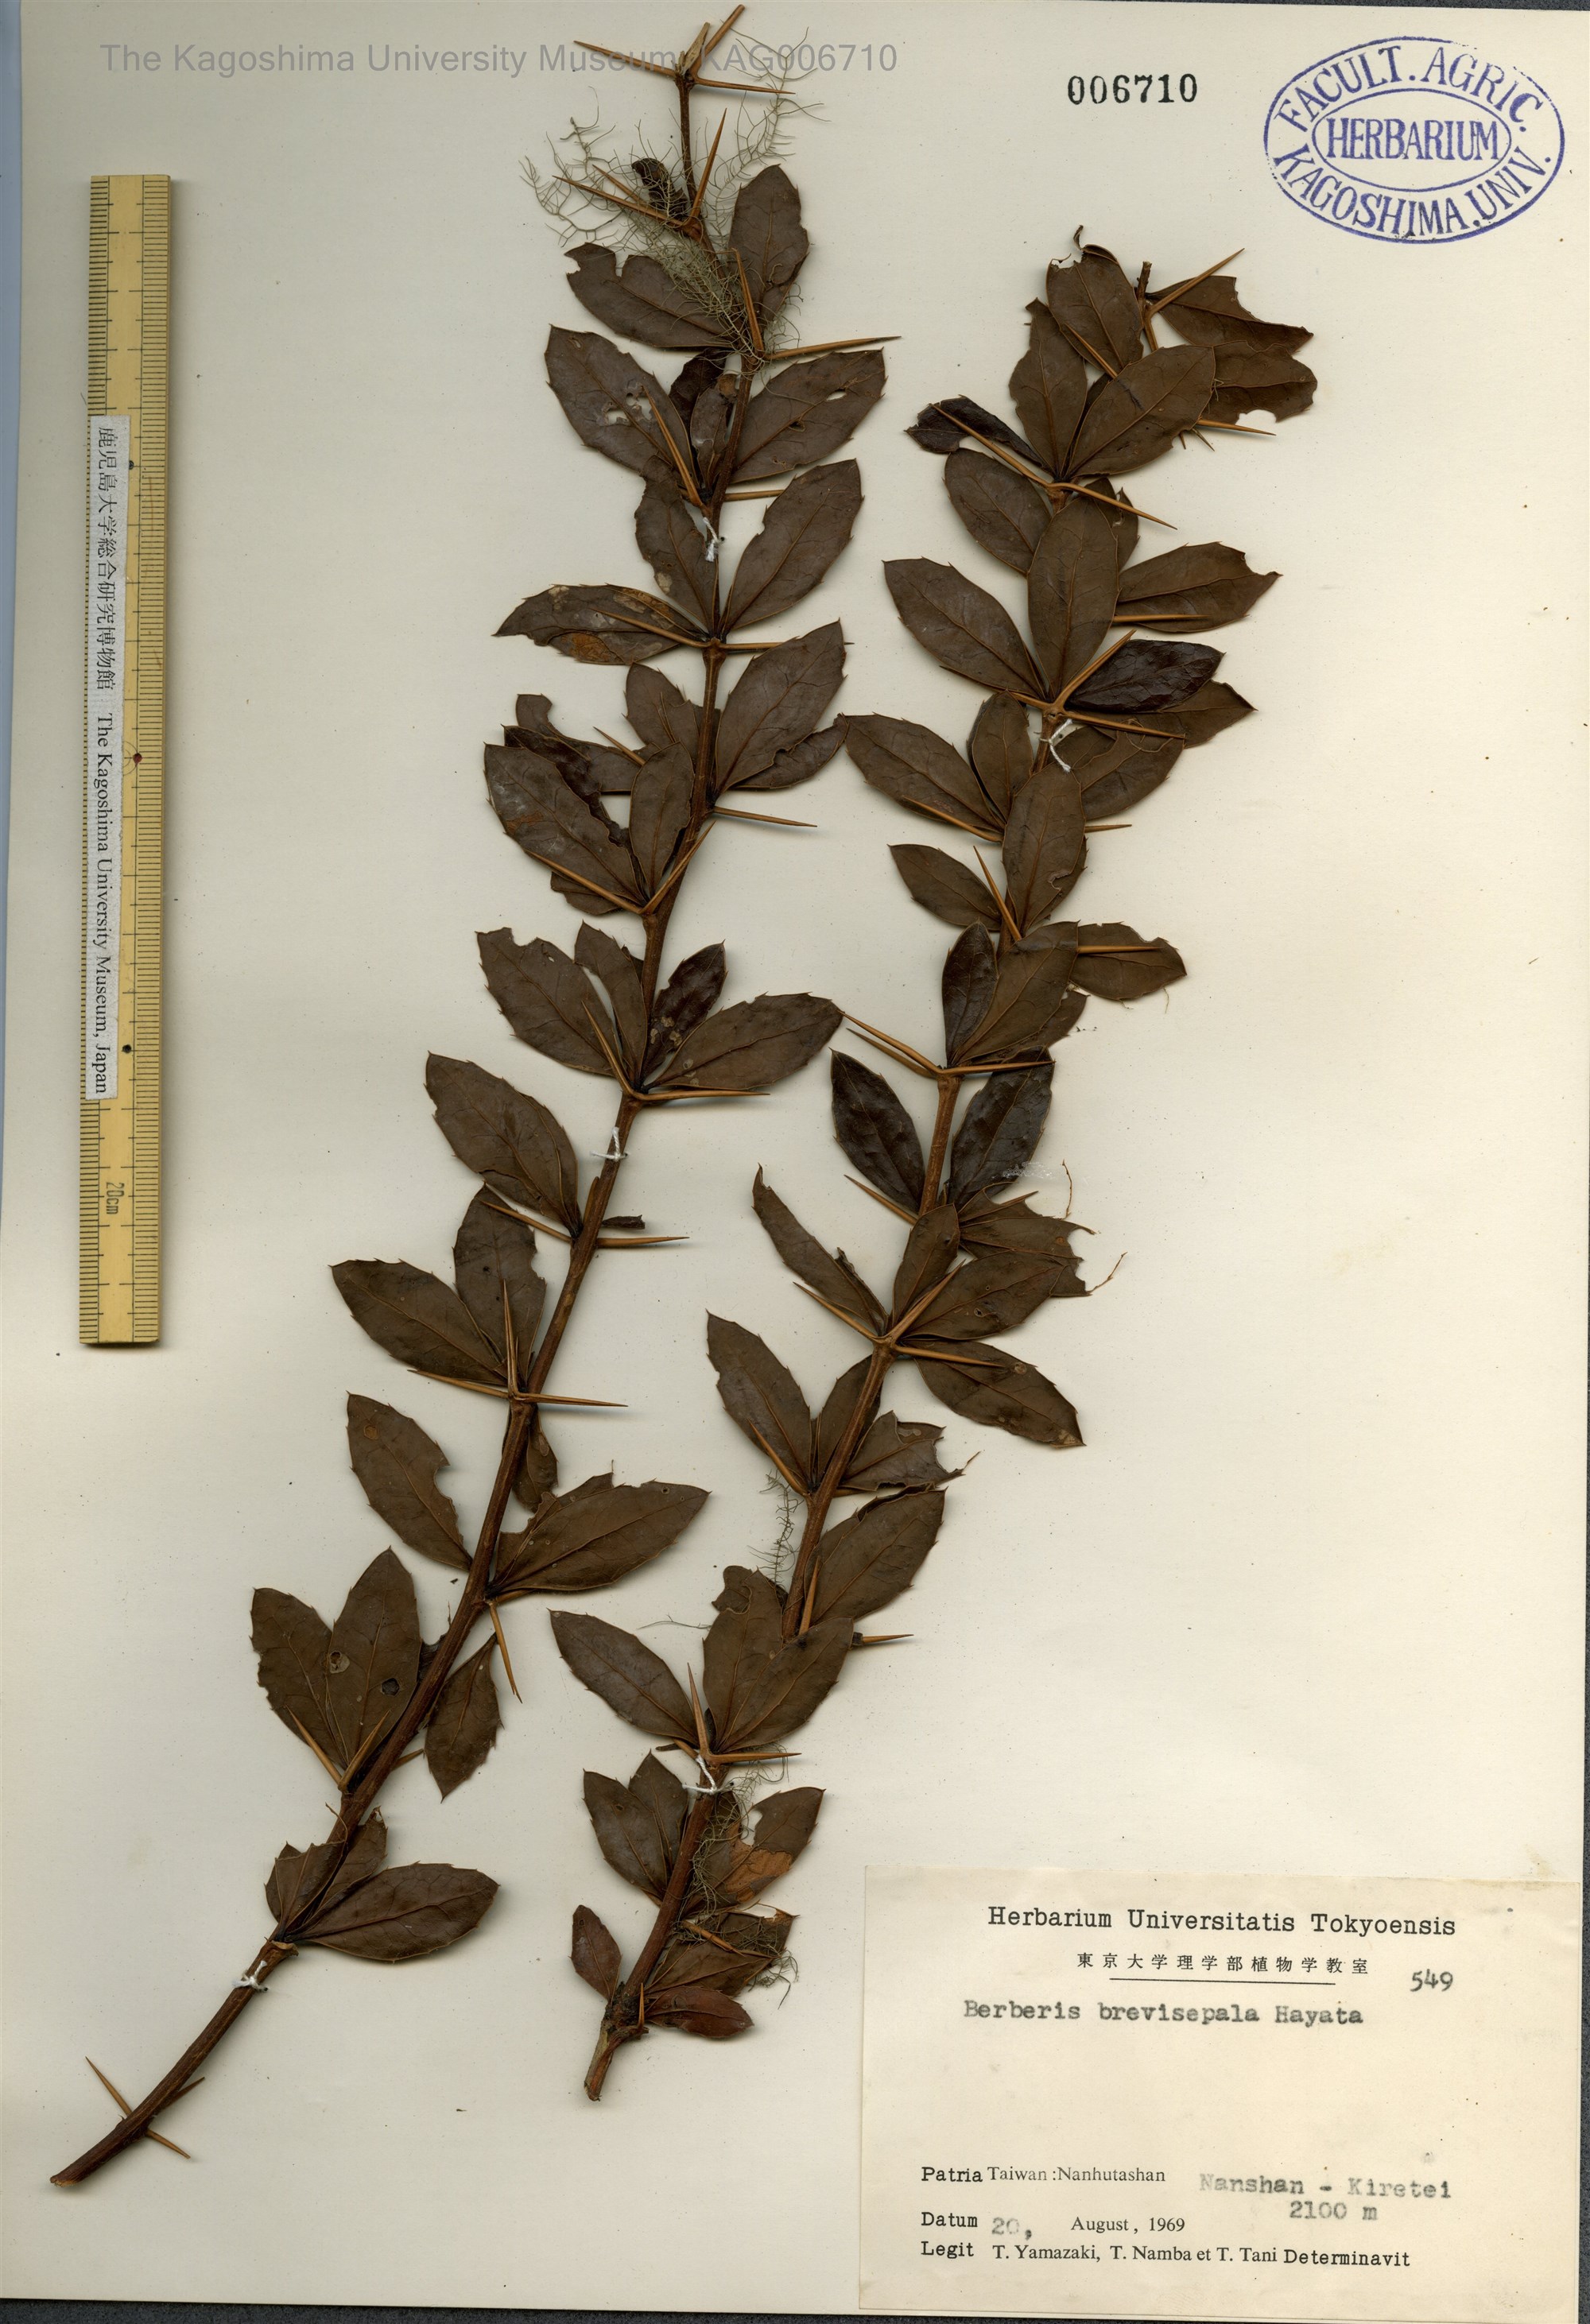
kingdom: Plantae
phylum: Tracheophyta
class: Magnoliopsida
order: Ranunculales
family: Berberidaceae
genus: Berberis
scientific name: Berberis kawakamii
